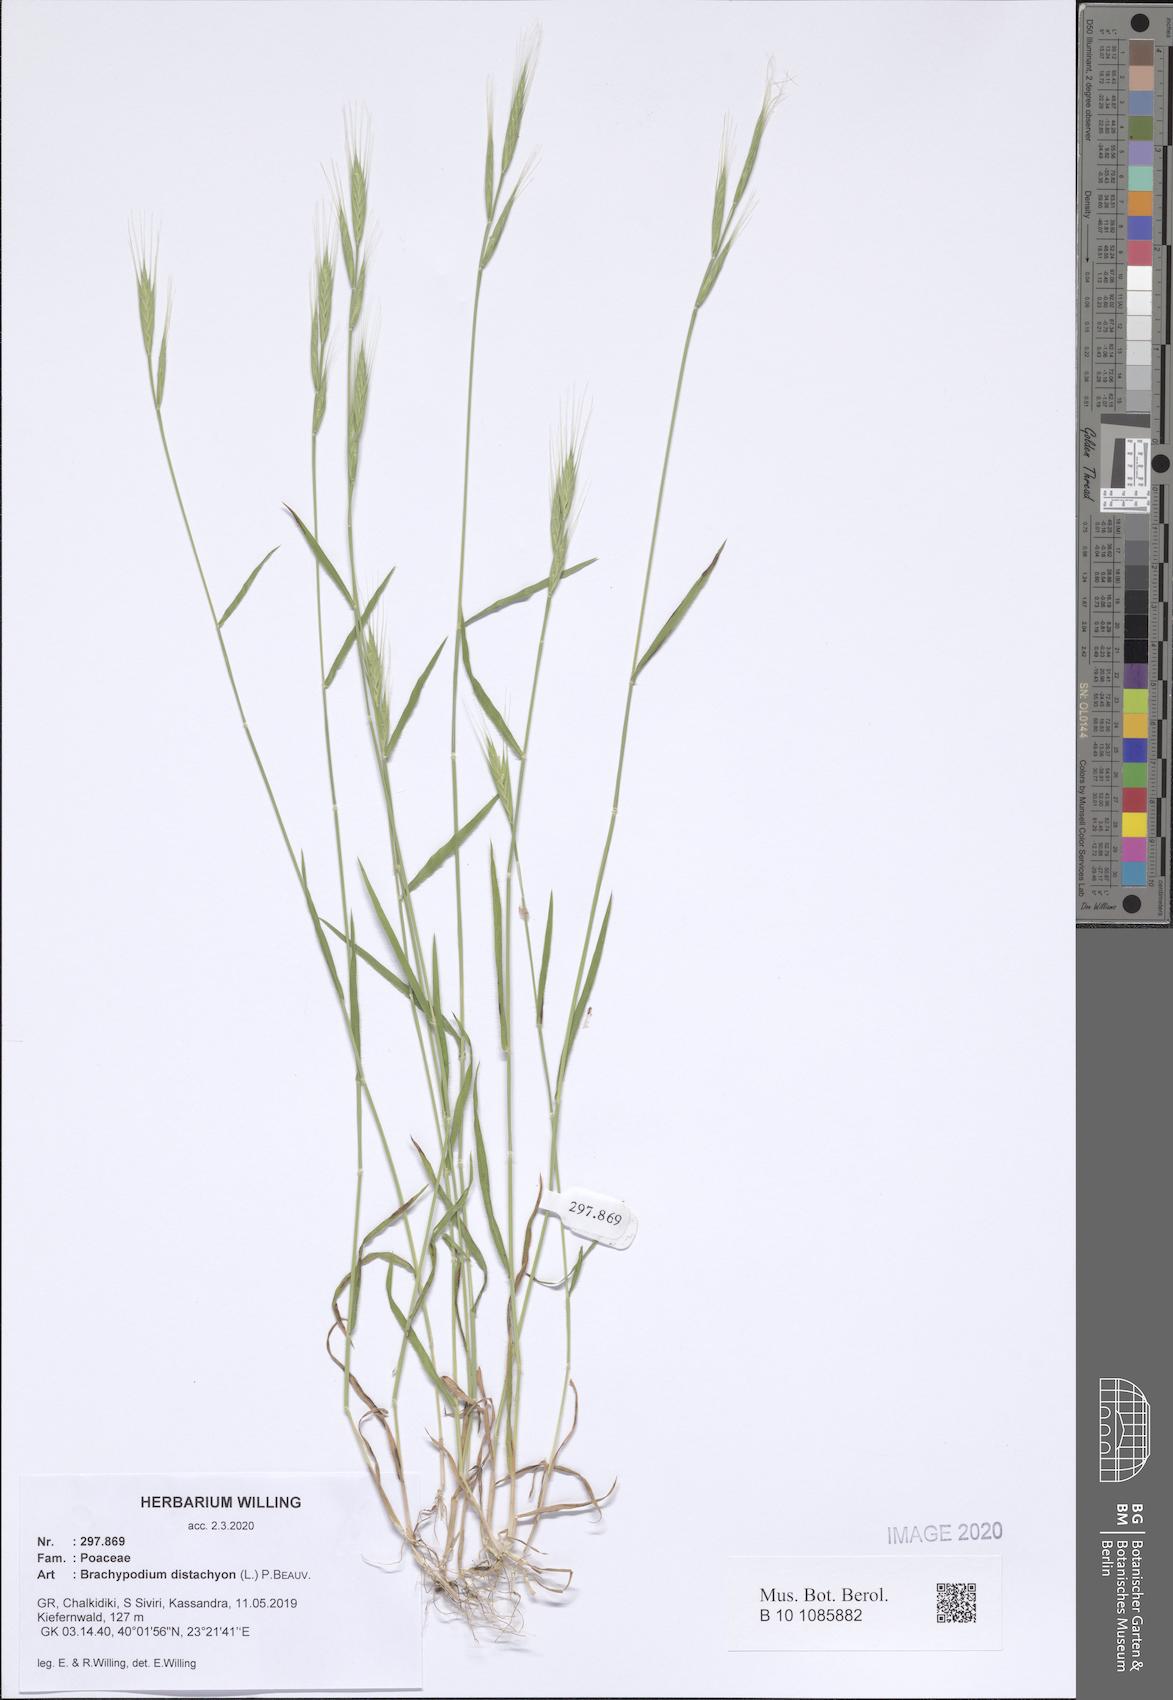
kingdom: Plantae
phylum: Tracheophyta
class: Liliopsida
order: Poales
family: Poaceae
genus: Brachypodium
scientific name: Brachypodium distachyon
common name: Stiff brome
